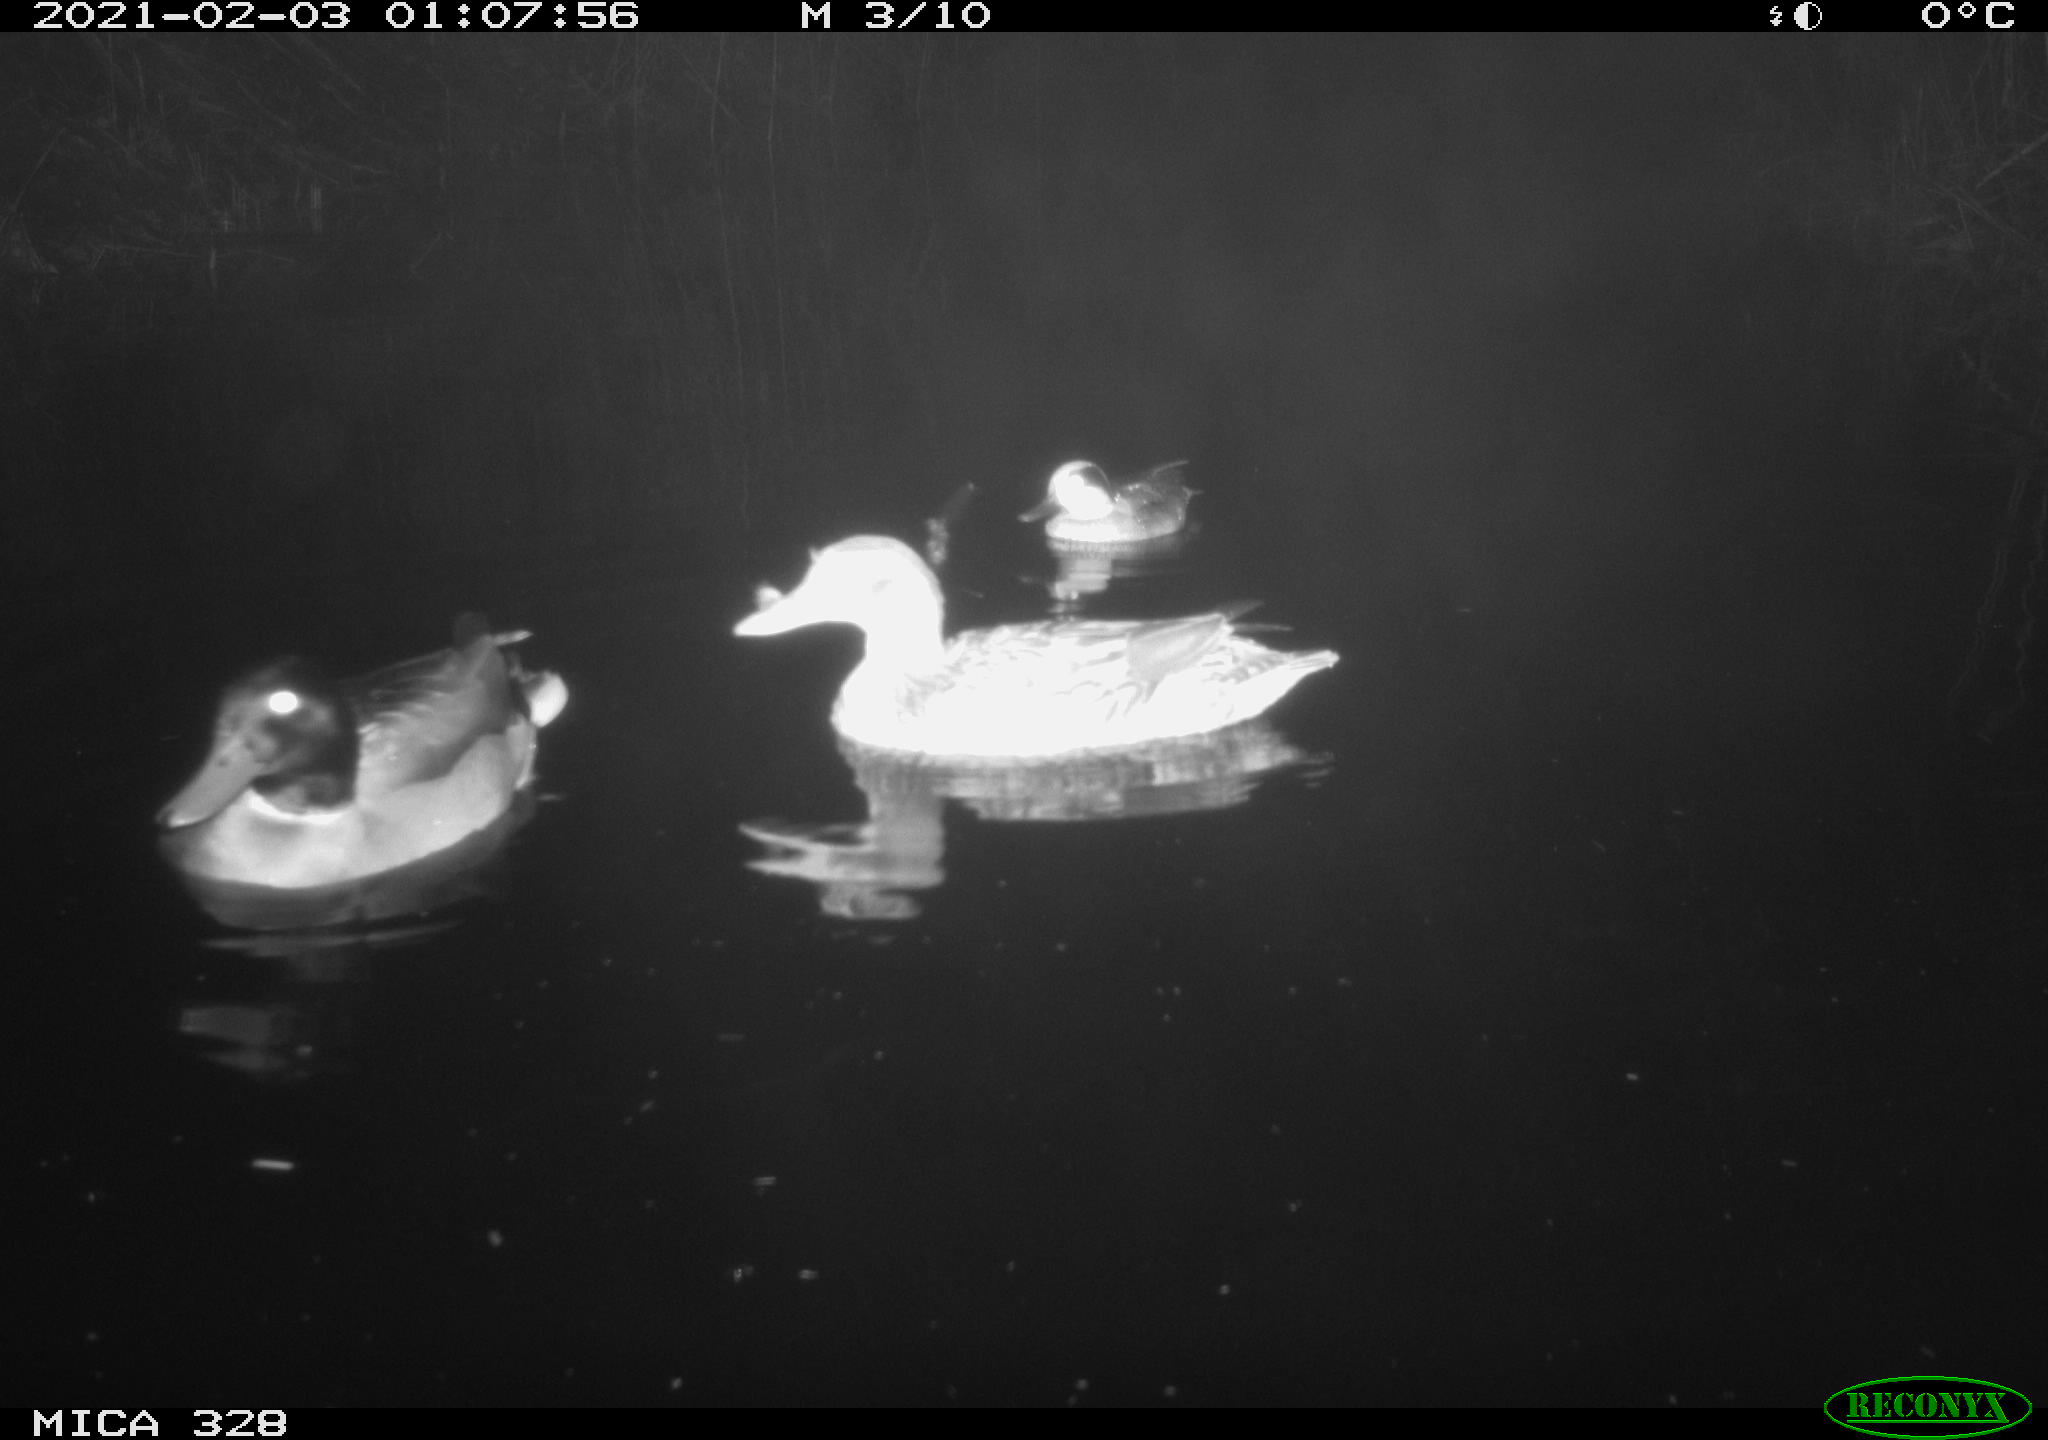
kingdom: Animalia
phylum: Chordata
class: Aves
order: Anseriformes
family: Anatidae
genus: Anas
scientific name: Anas platyrhynchos
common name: Mallard
